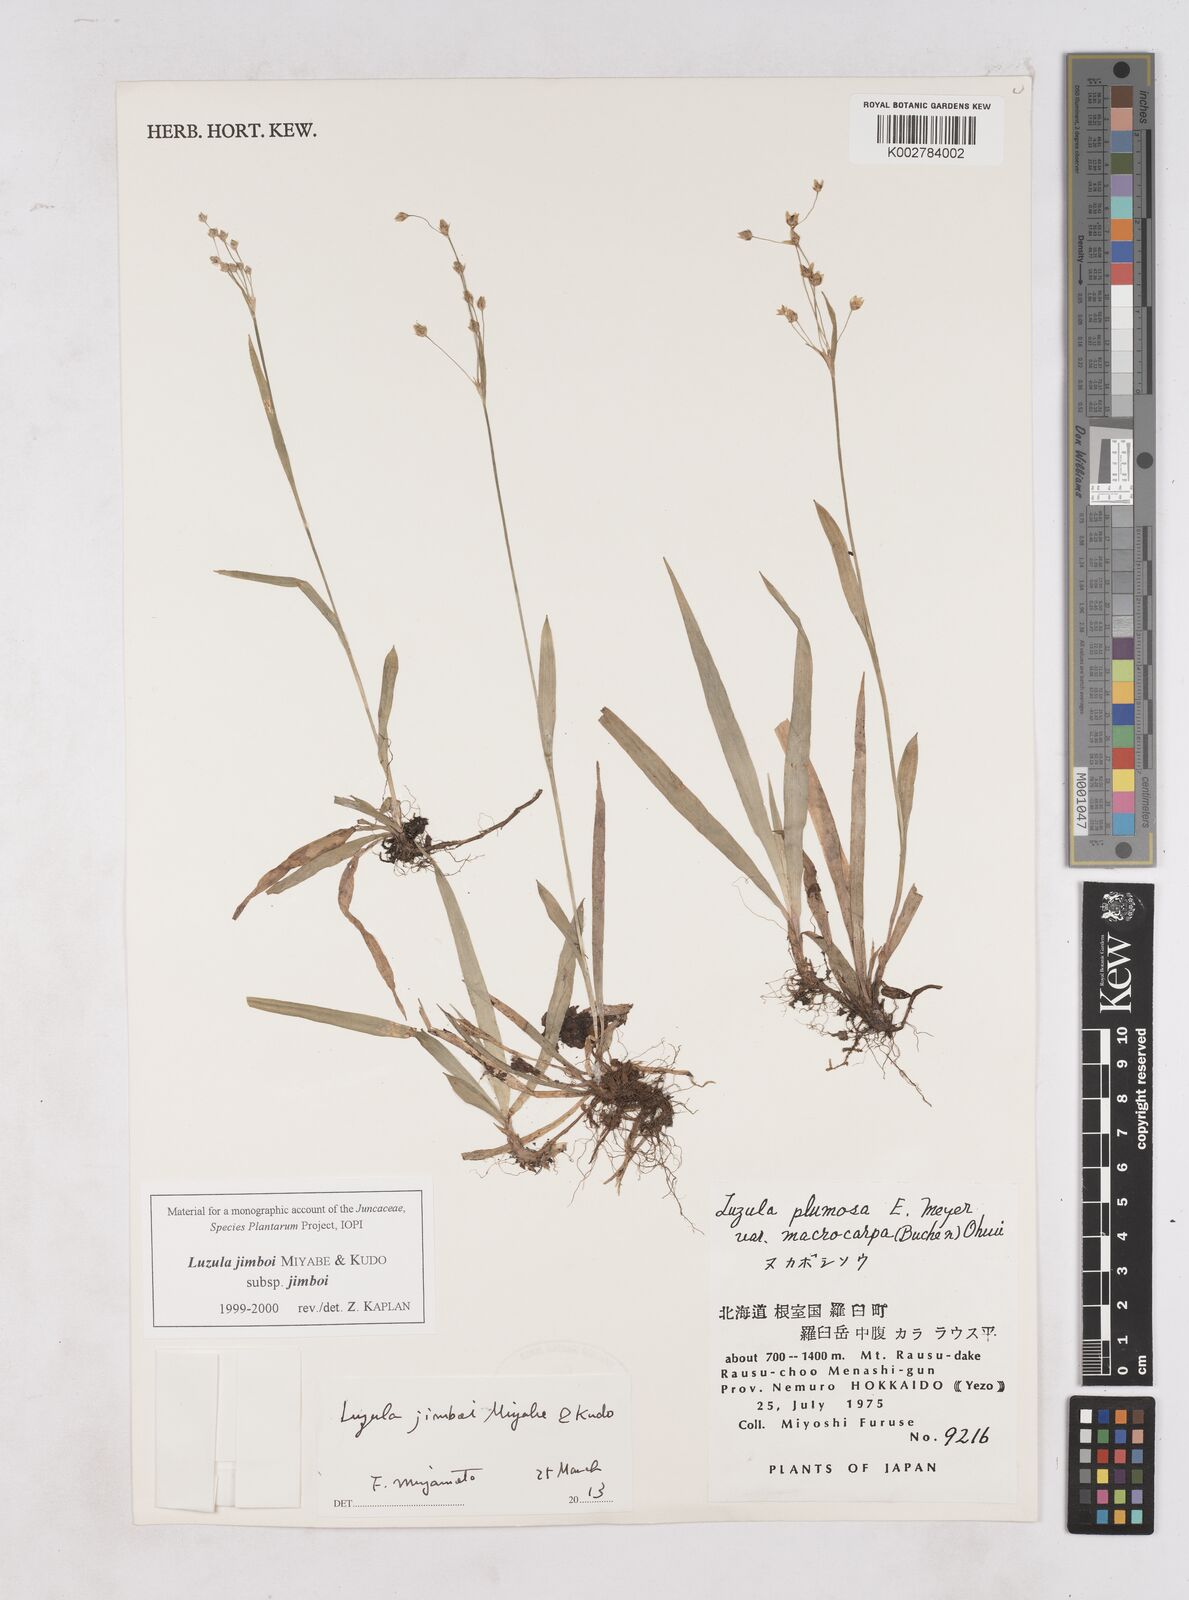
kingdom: Plantae
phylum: Tracheophyta
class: Liliopsida
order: Poales
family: Juncaceae
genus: Luzula
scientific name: Luzula jimboi
